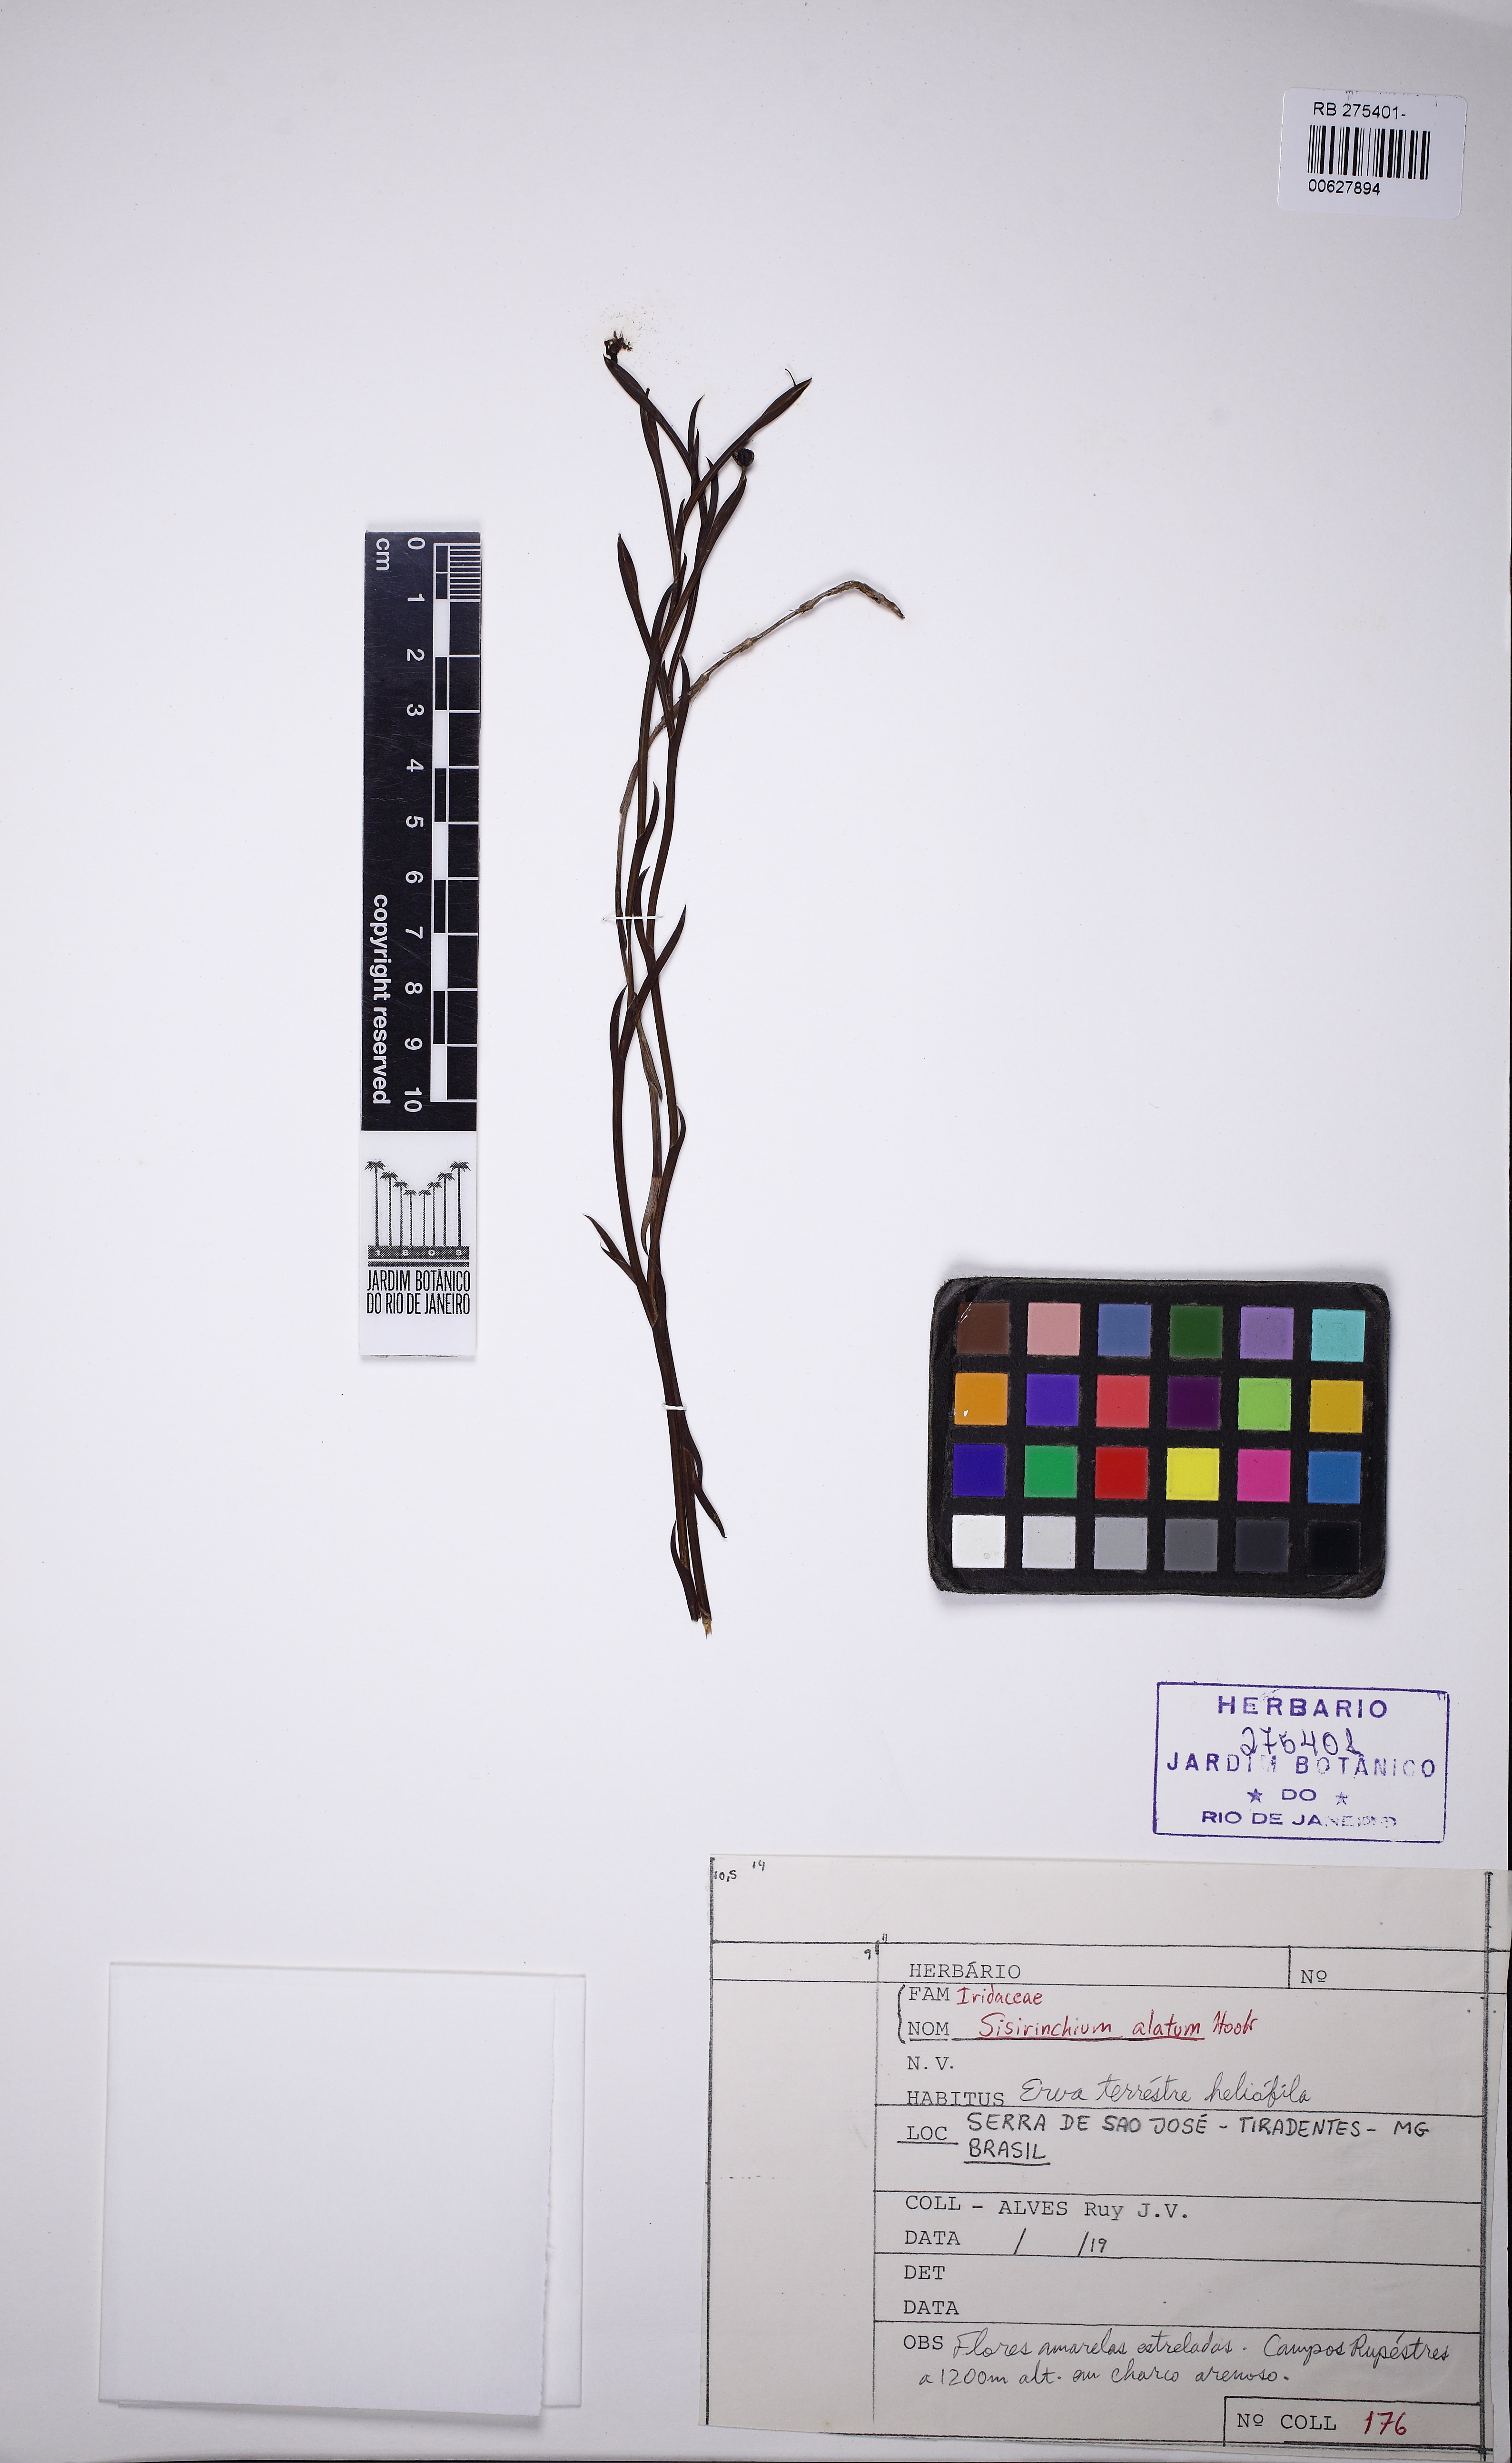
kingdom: Plantae
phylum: Tracheophyta
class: Liliopsida
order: Asparagales
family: Iridaceae
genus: Sisyrinchium
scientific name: Sisyrinchium vaginatum
